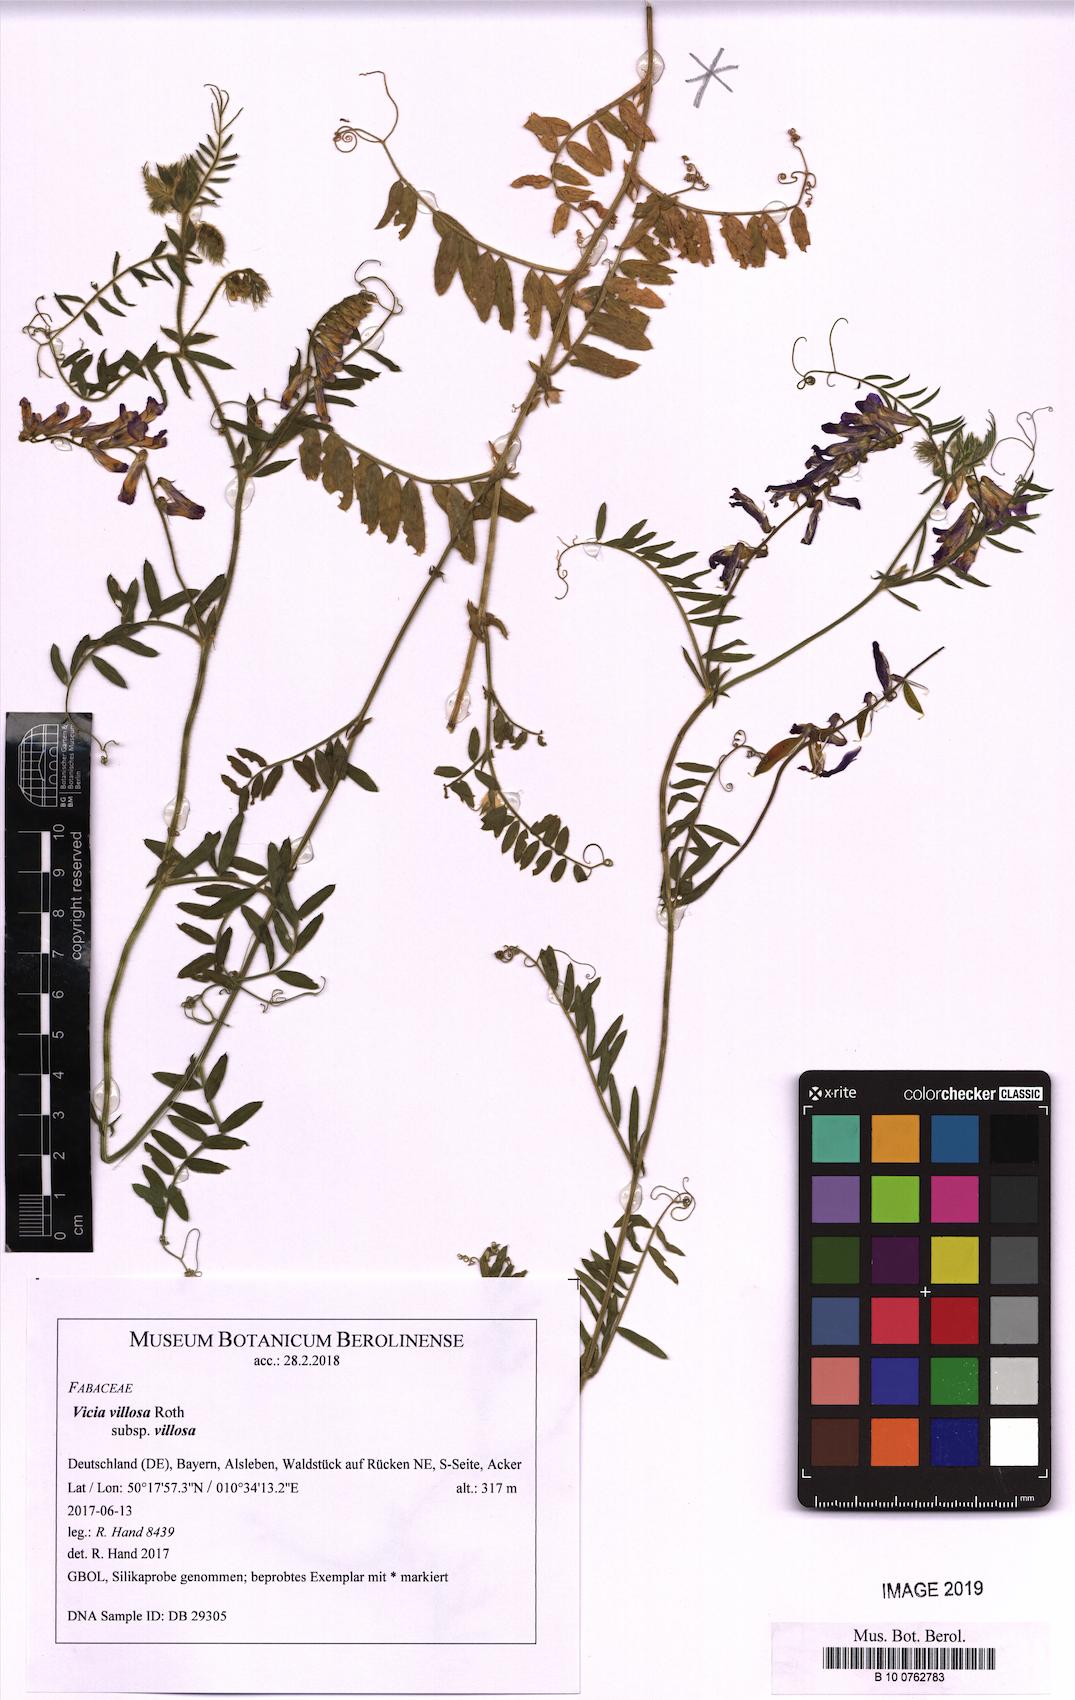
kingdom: Plantae
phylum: Tracheophyta
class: Magnoliopsida
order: Fabales
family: Fabaceae
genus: Vicia
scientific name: Vicia villosa
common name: Fodder vetch
